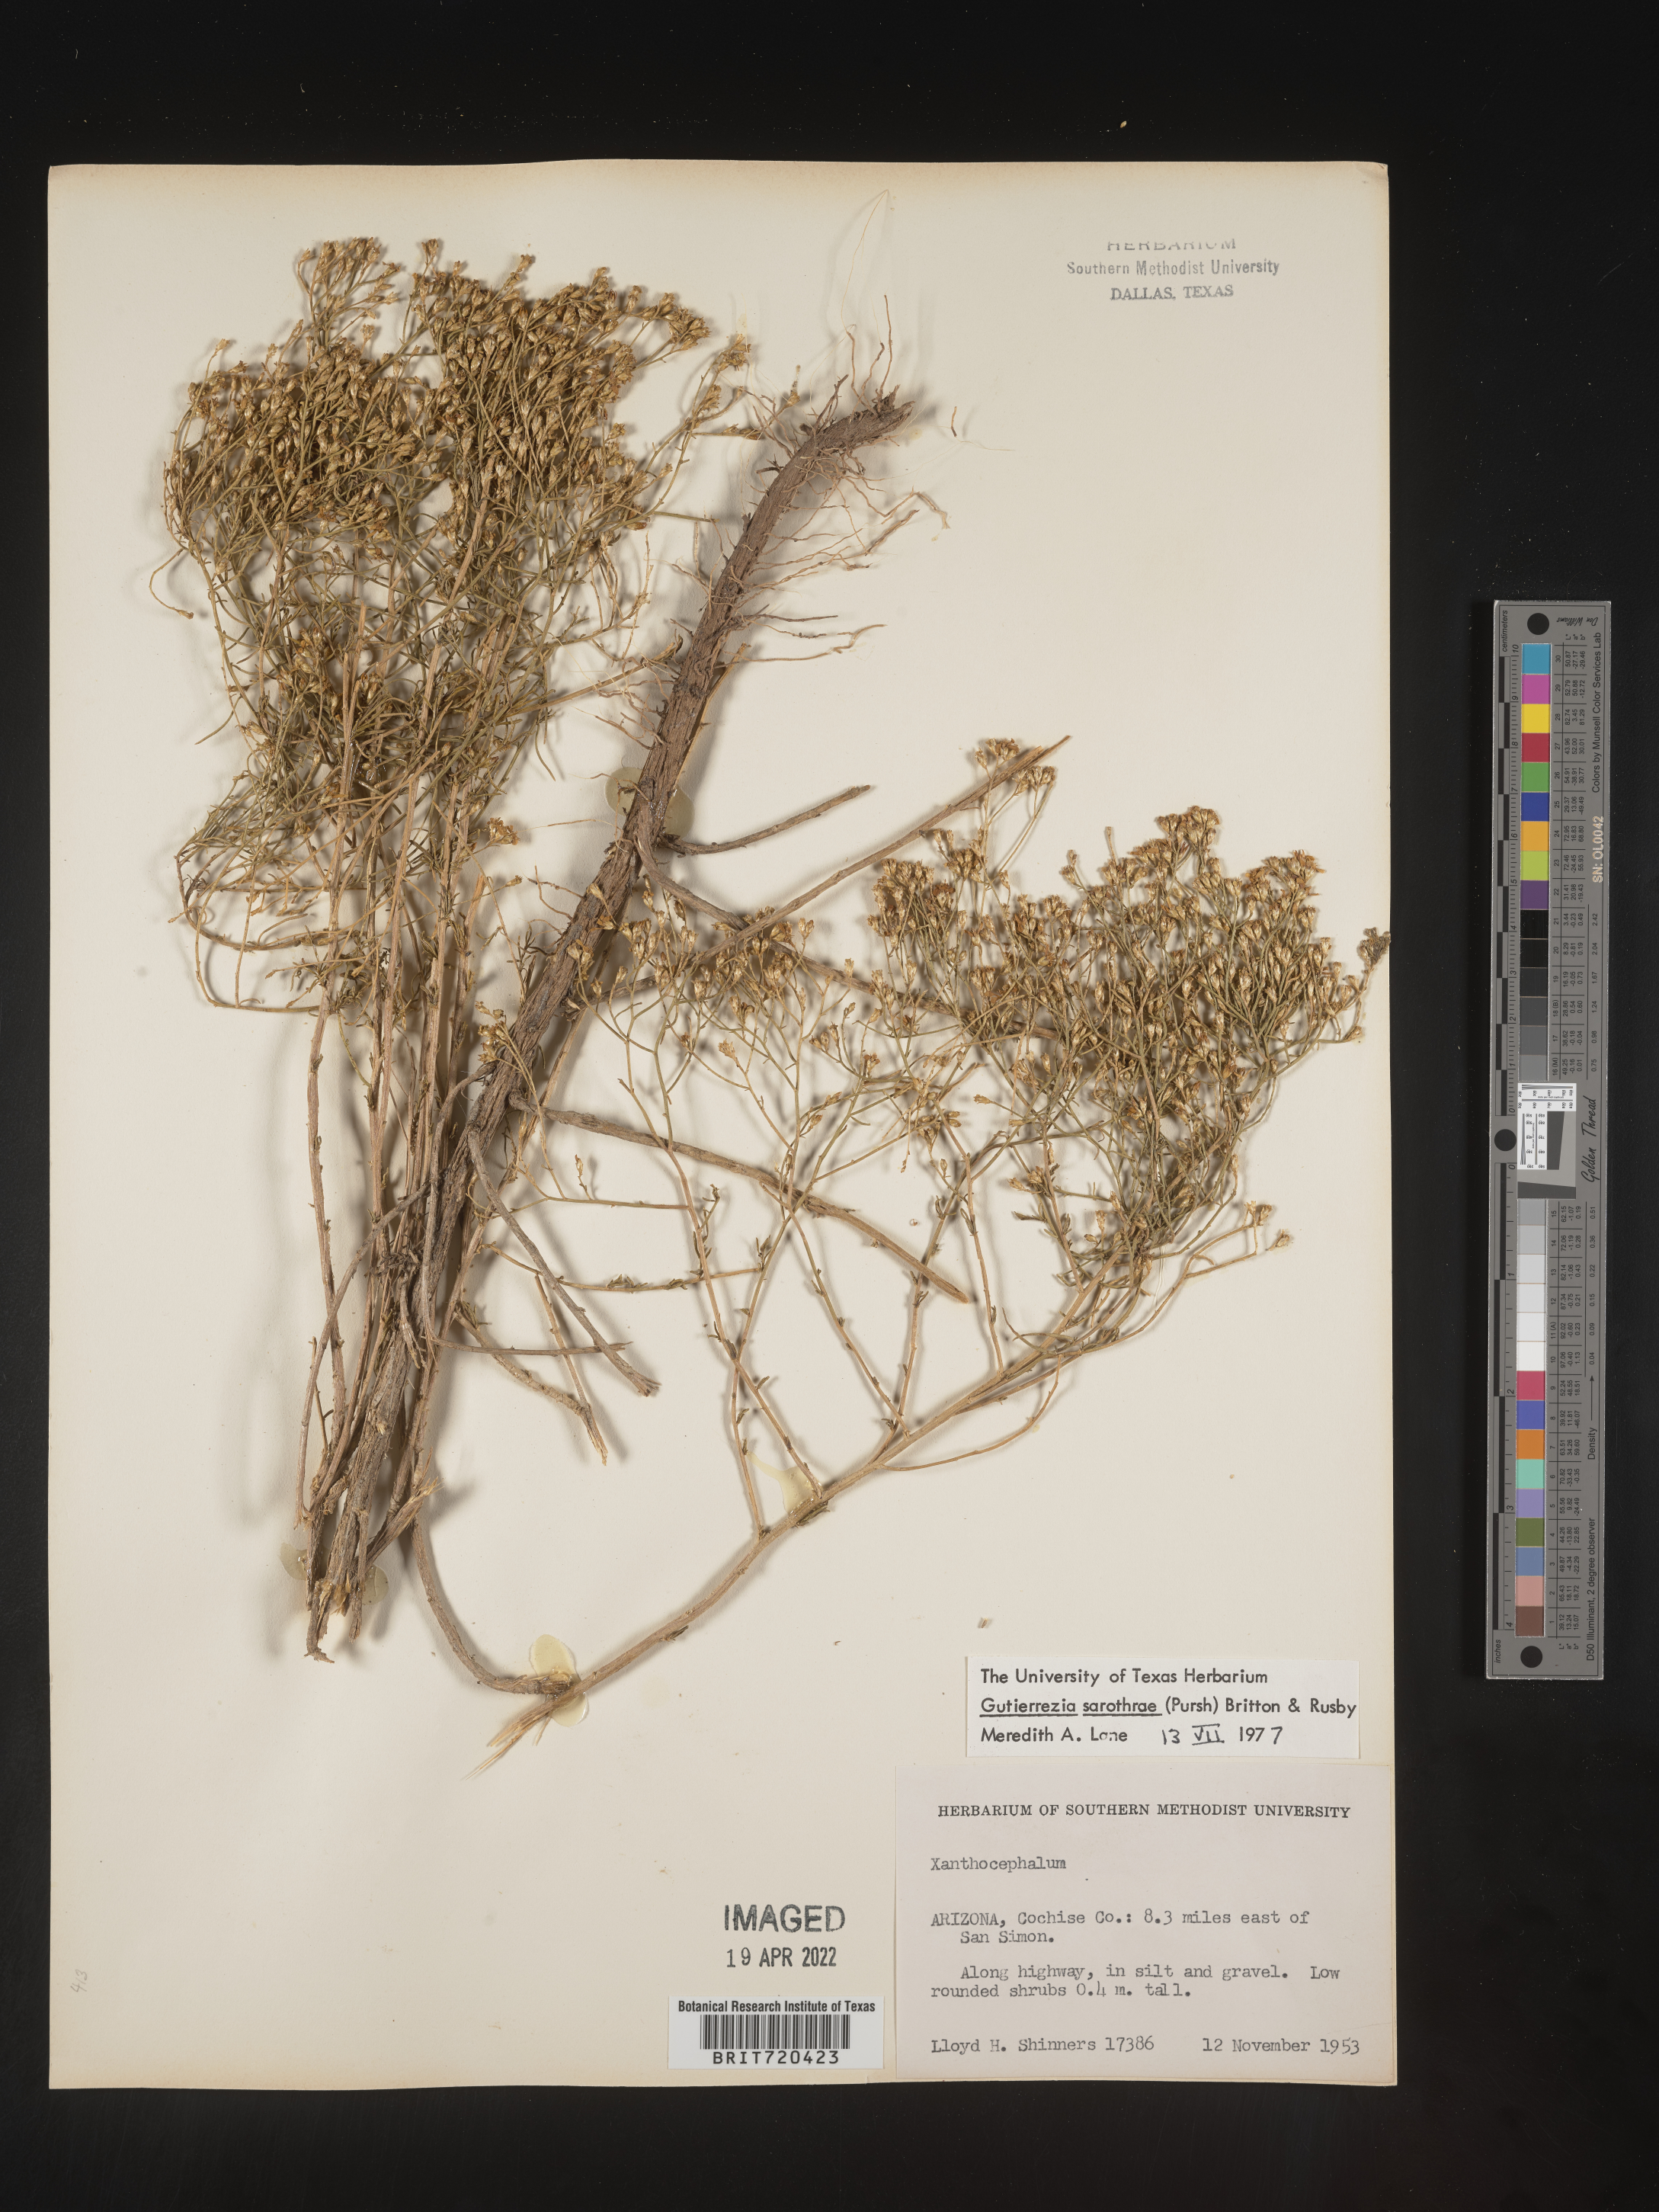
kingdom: Plantae
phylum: Tracheophyta
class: Magnoliopsida
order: Asterales
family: Asteraceae
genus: Gutierrezia
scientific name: Gutierrezia sarothrae
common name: Broom snakeweed
